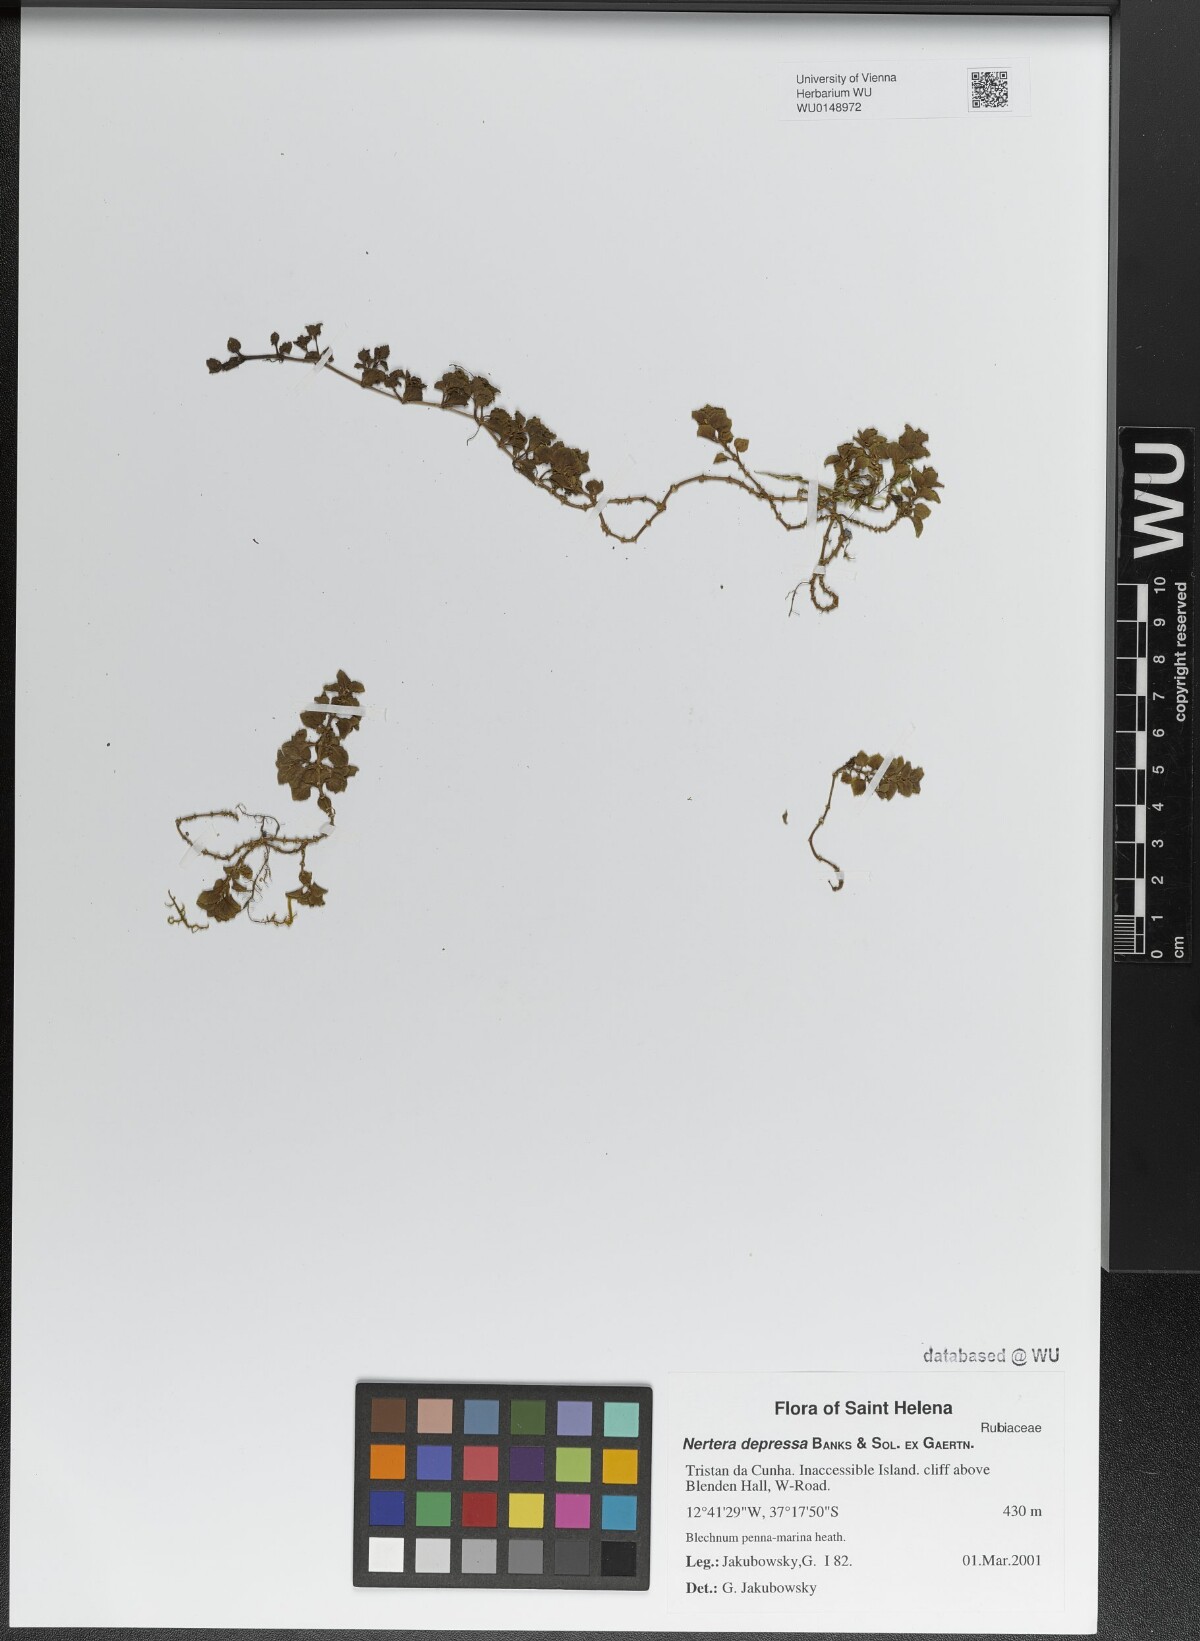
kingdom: Plantae
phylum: Tracheophyta
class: Magnoliopsida
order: Gentianales
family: Rubiaceae
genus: Nertera
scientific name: Nertera granadensis
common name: Beadplant
